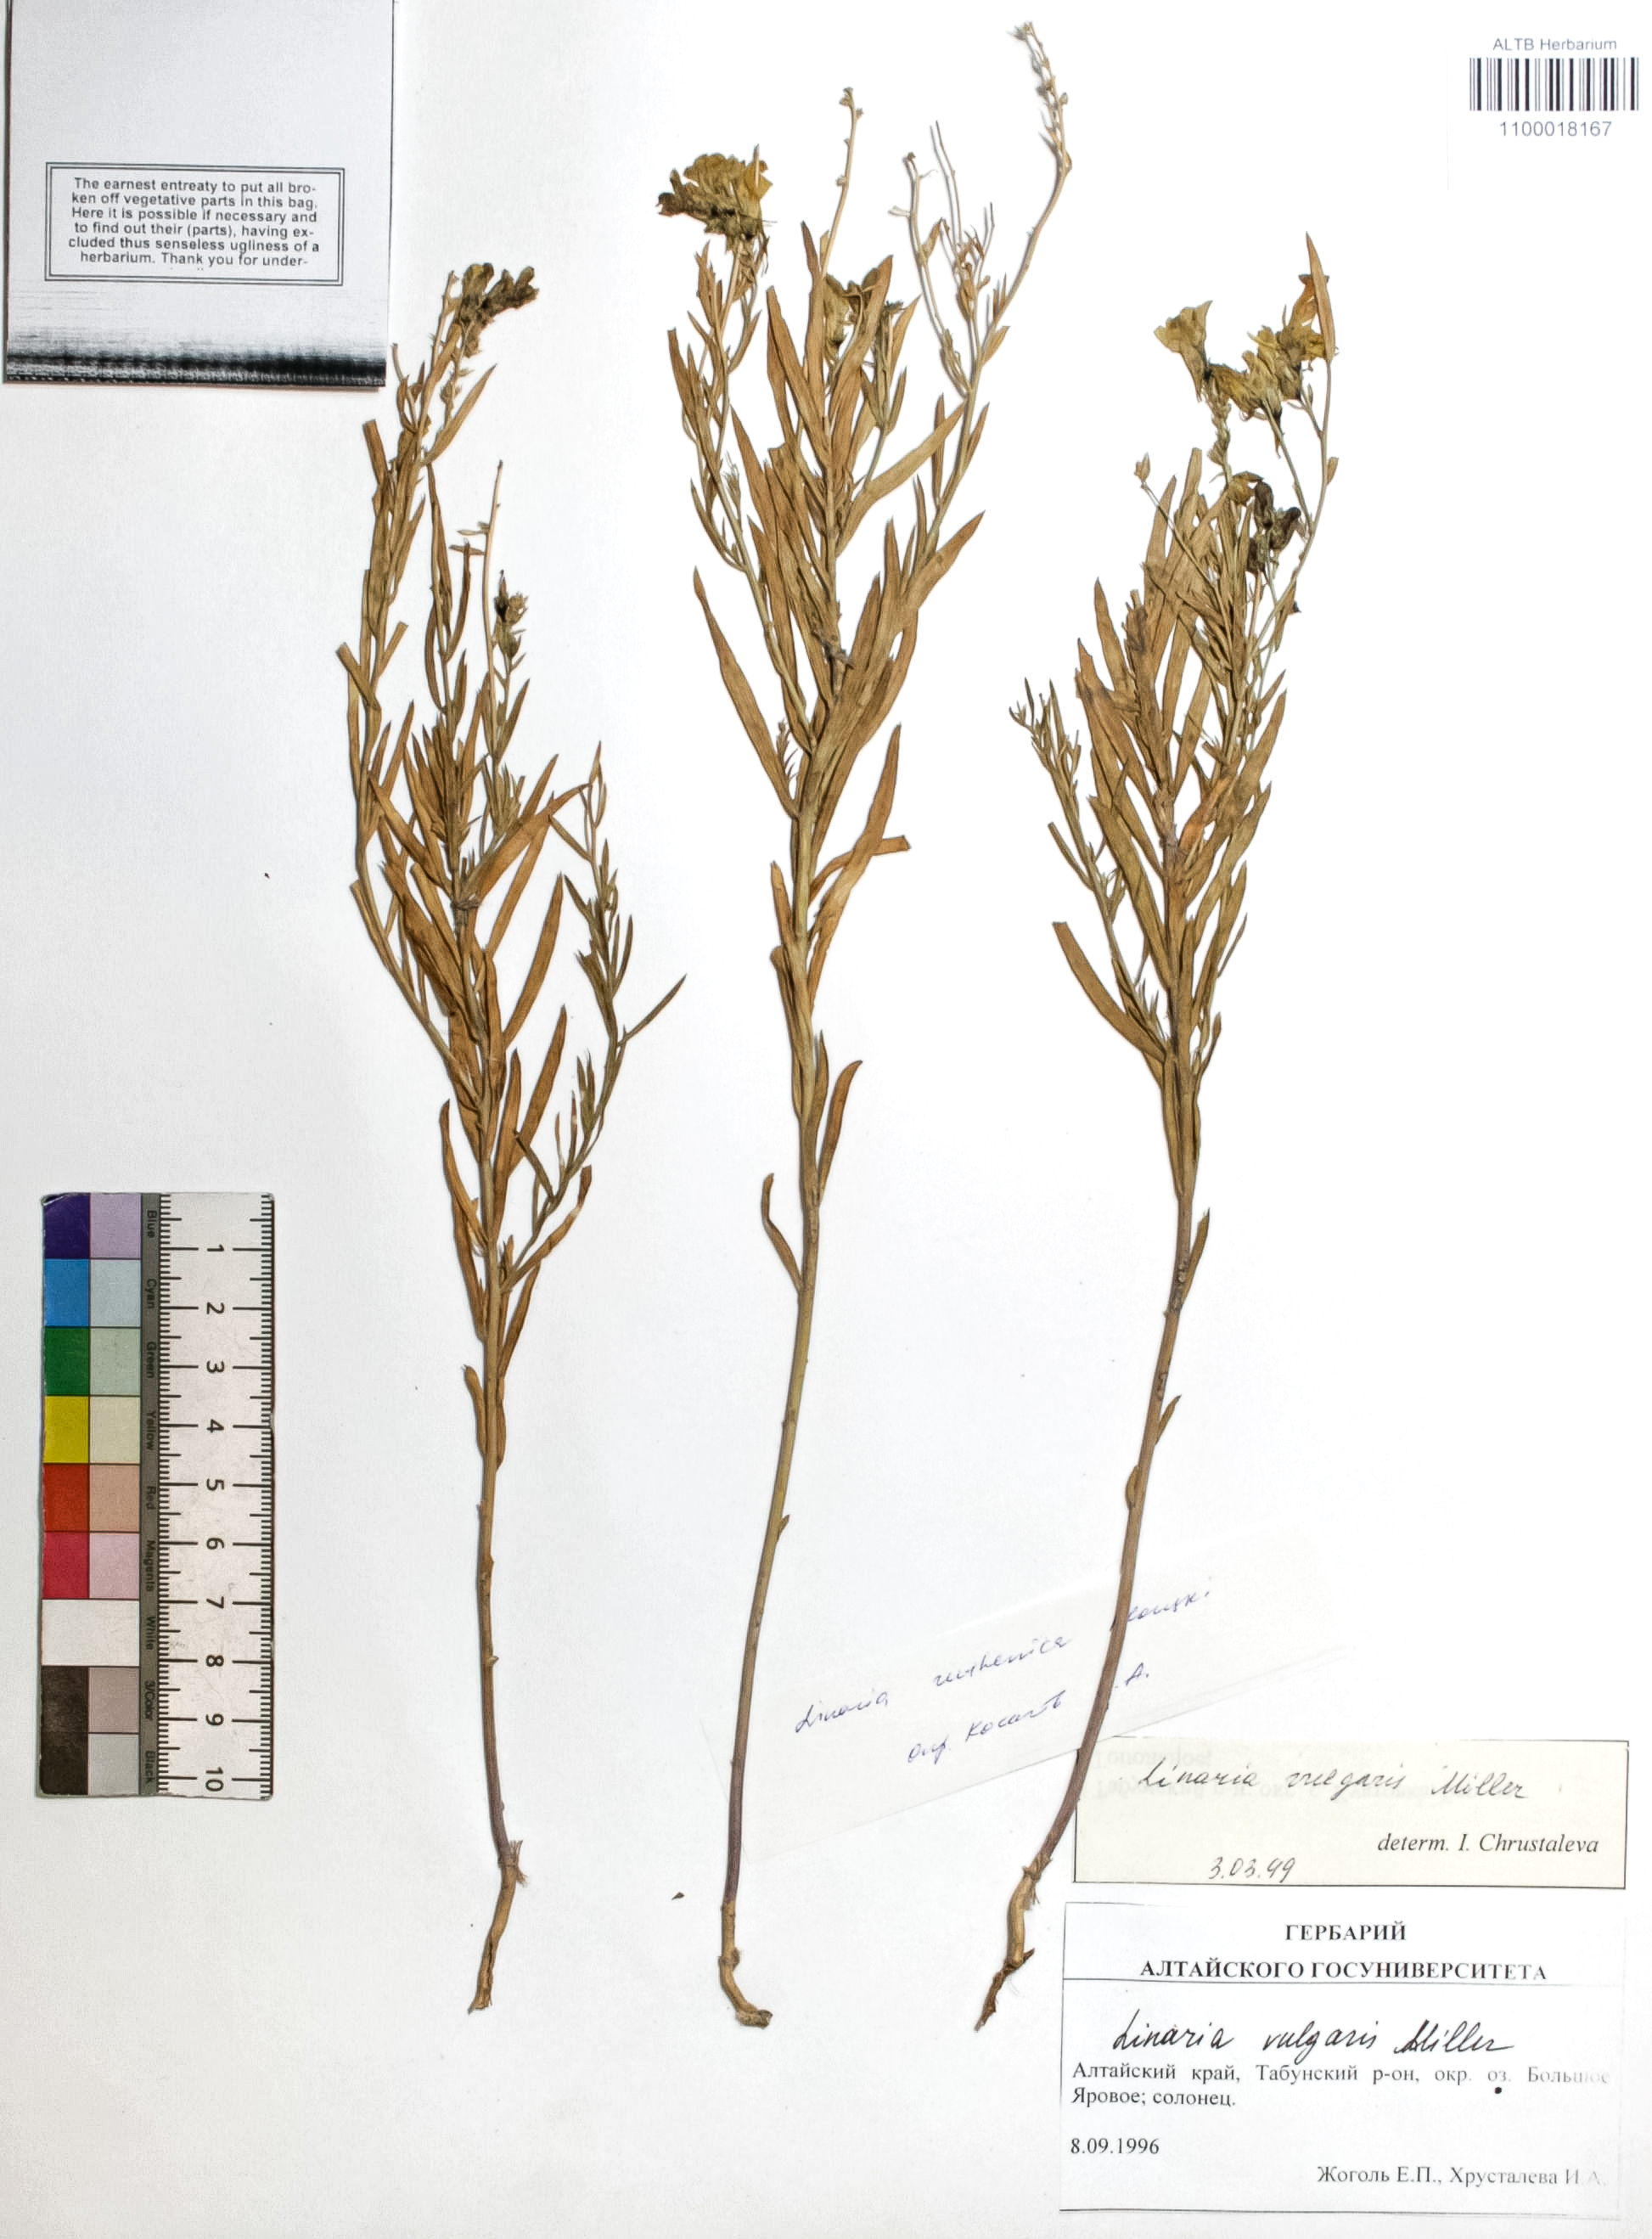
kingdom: Plantae
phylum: Tracheophyta
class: Magnoliopsida
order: Lamiales
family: Plantaginaceae
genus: Linaria
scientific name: Linaria vulgaris
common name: Butter and eggs
